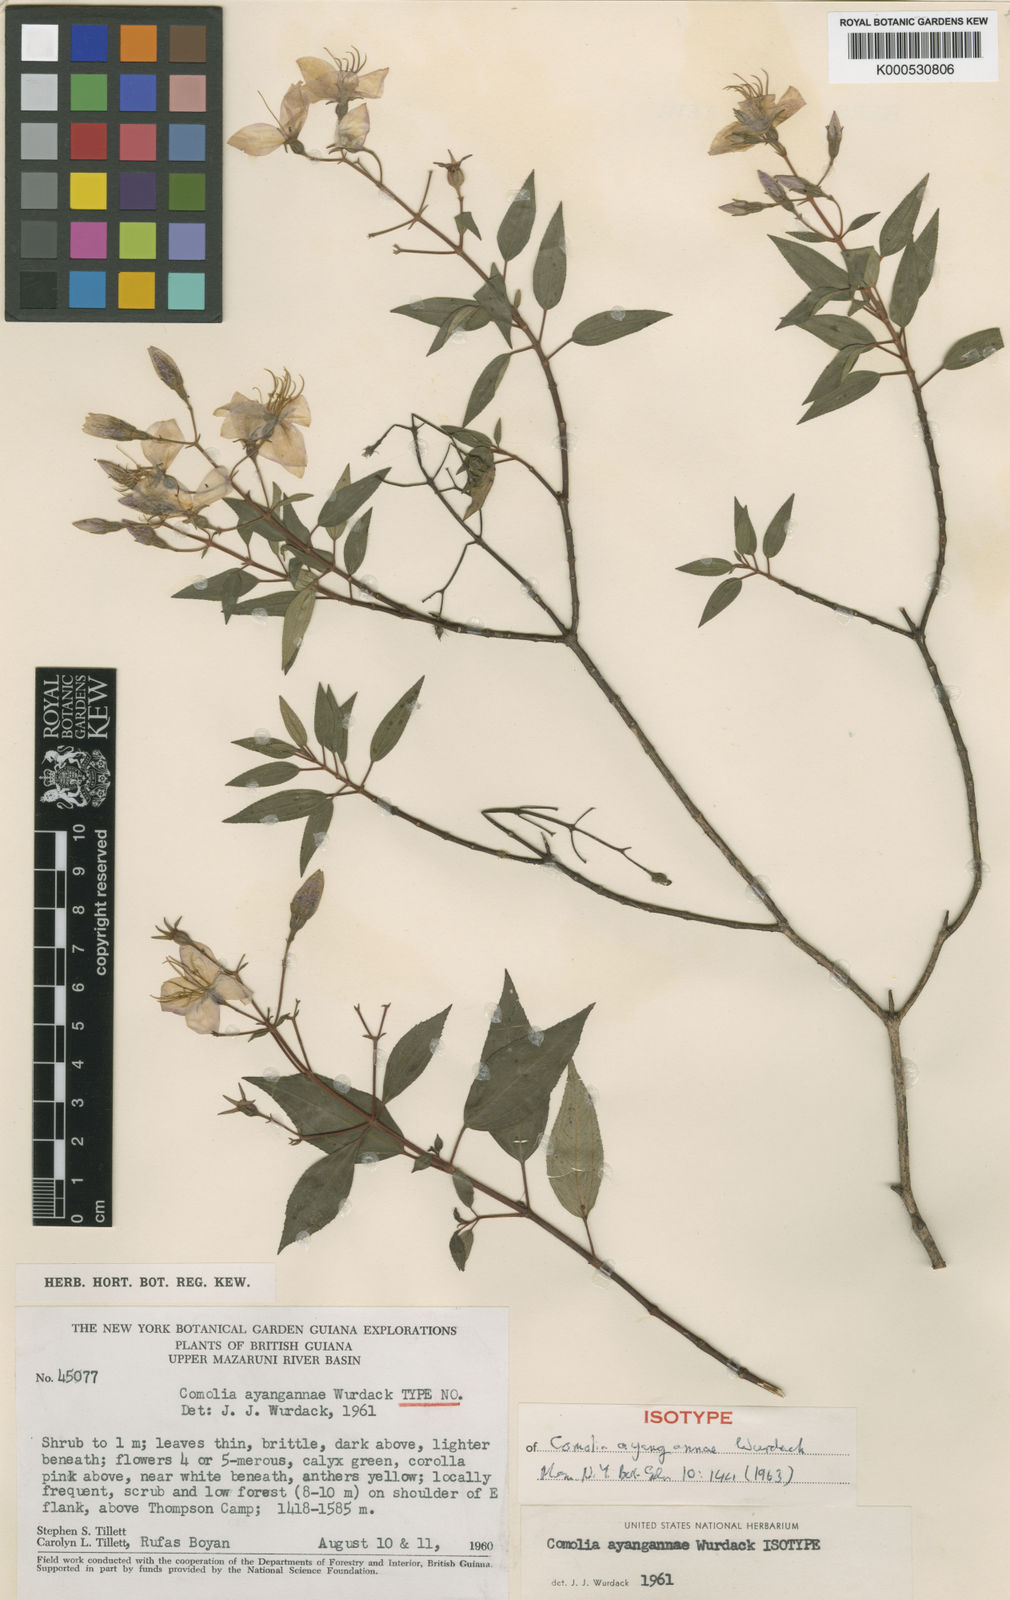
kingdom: Plantae
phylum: Tracheophyta
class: Magnoliopsida
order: Myrtales
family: Melastomataceae
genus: Acisanthera
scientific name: Acisanthera ayangannae
